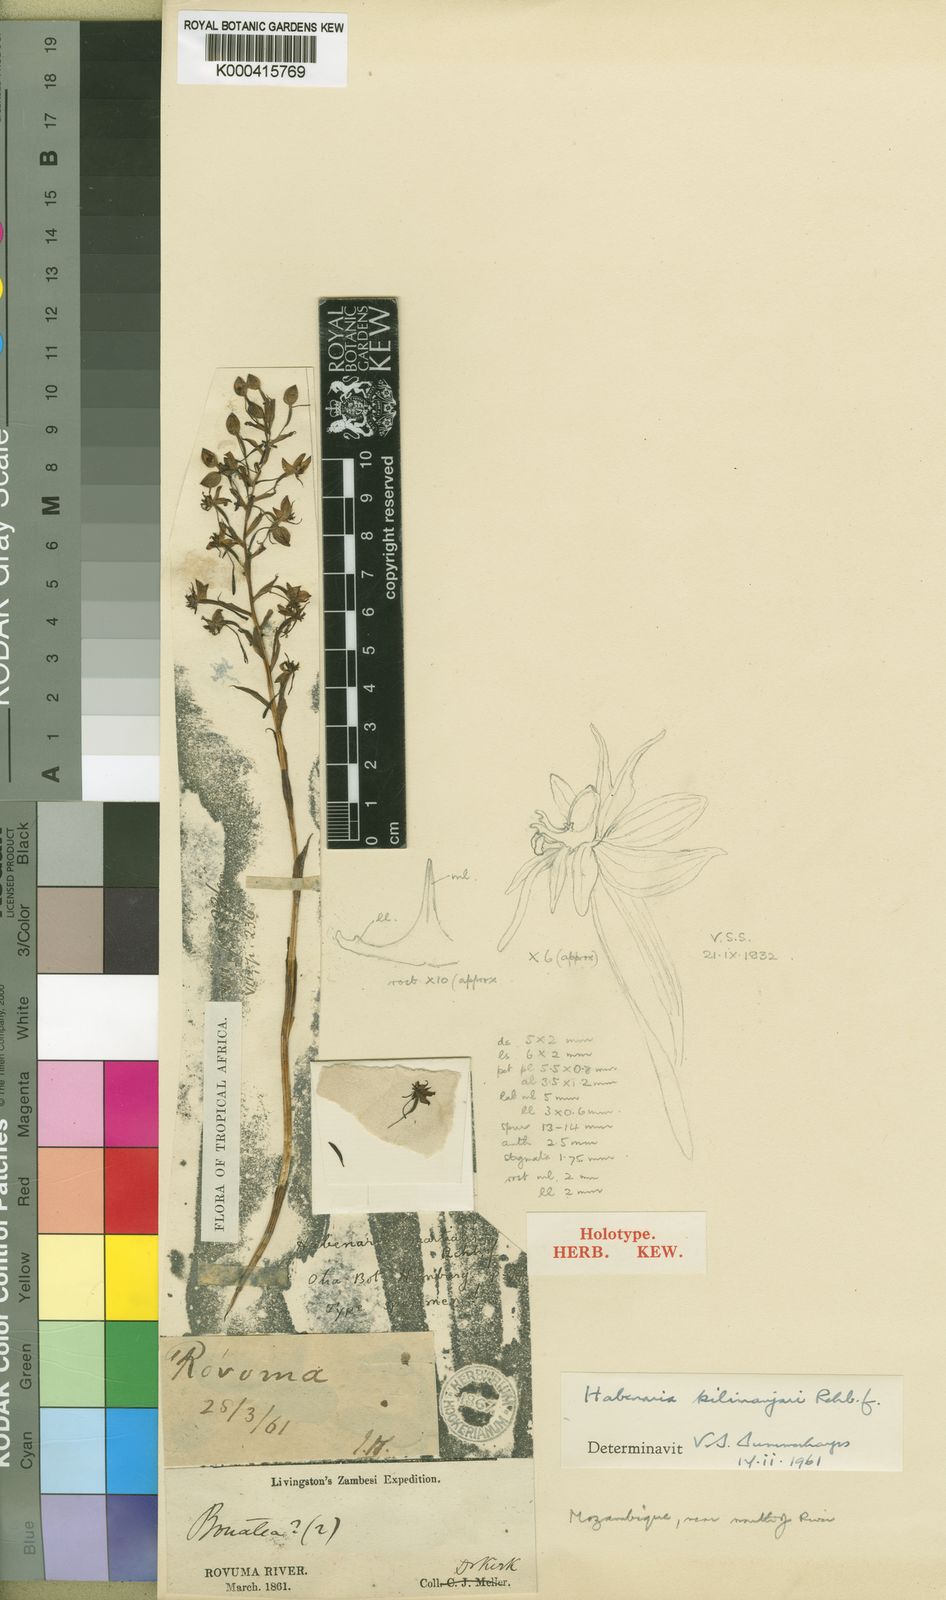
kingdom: Plantae
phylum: Tracheophyta
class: Liliopsida
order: Asparagales
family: Orchidaceae
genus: Habenaria
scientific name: Habenaria kilimanjari
